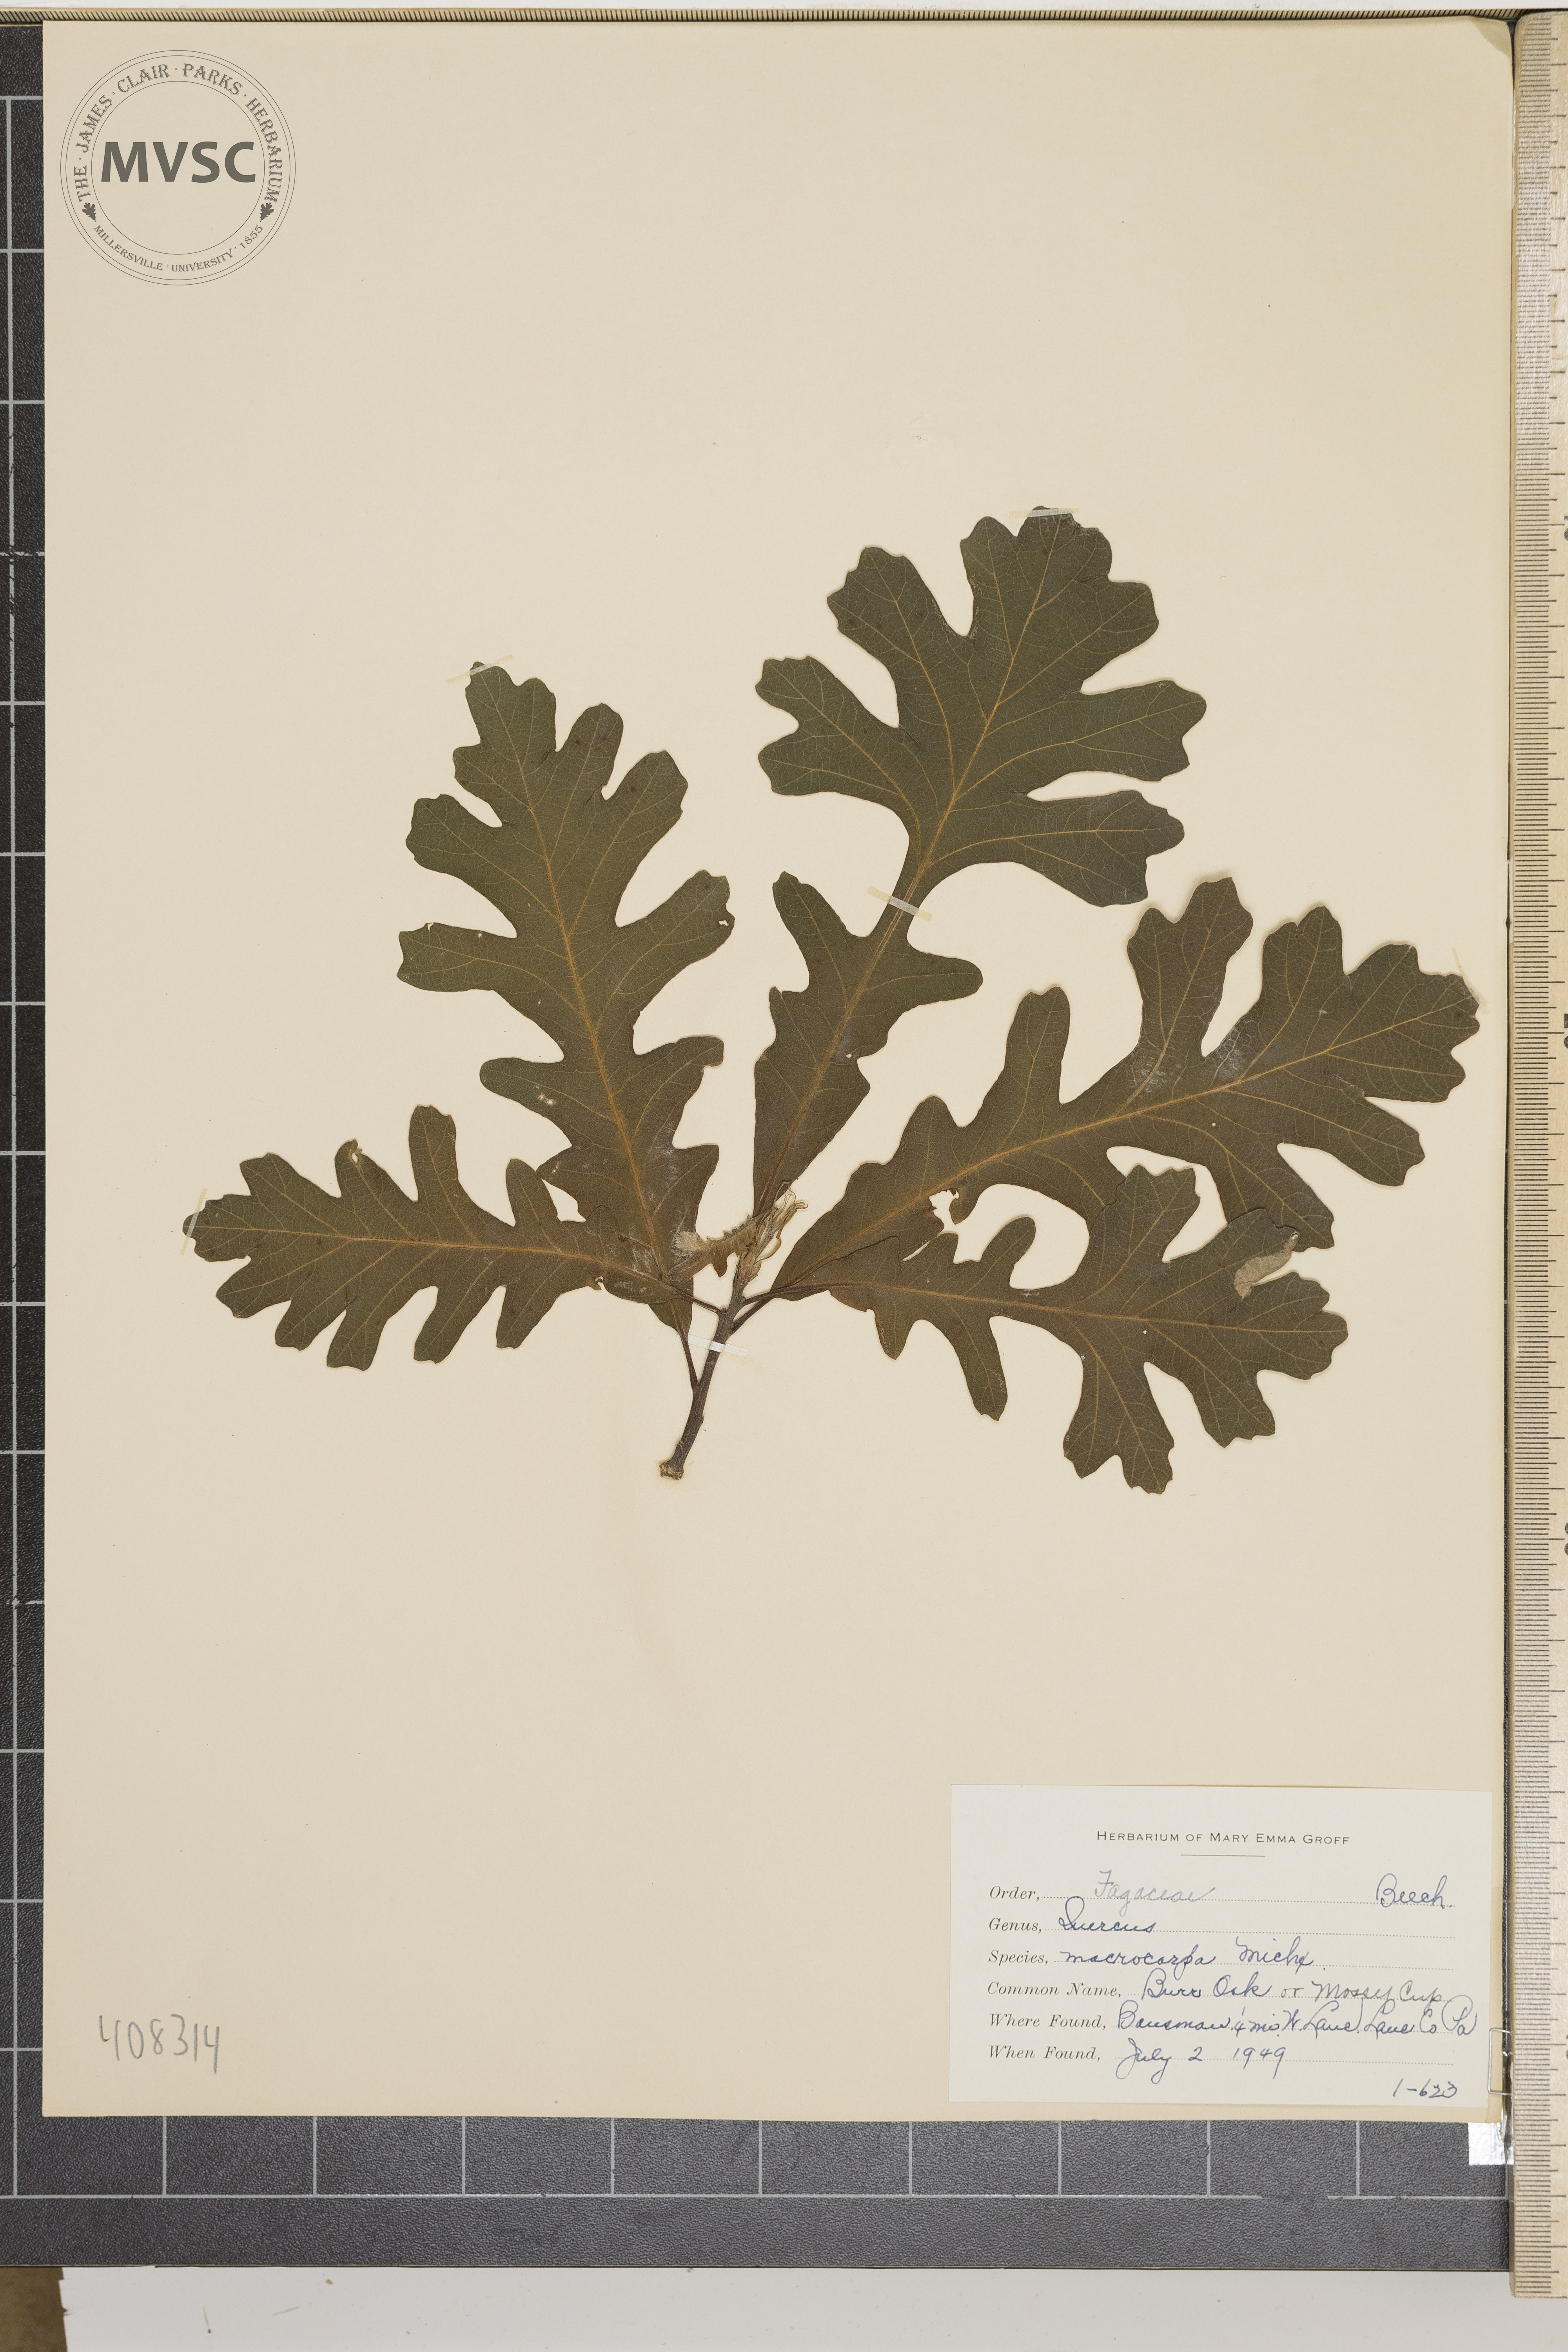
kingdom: Plantae
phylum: Tracheophyta
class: Magnoliopsida
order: Fagales
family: Fagaceae
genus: Quercus
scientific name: Quercus macrocarpa
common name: Bur oak
